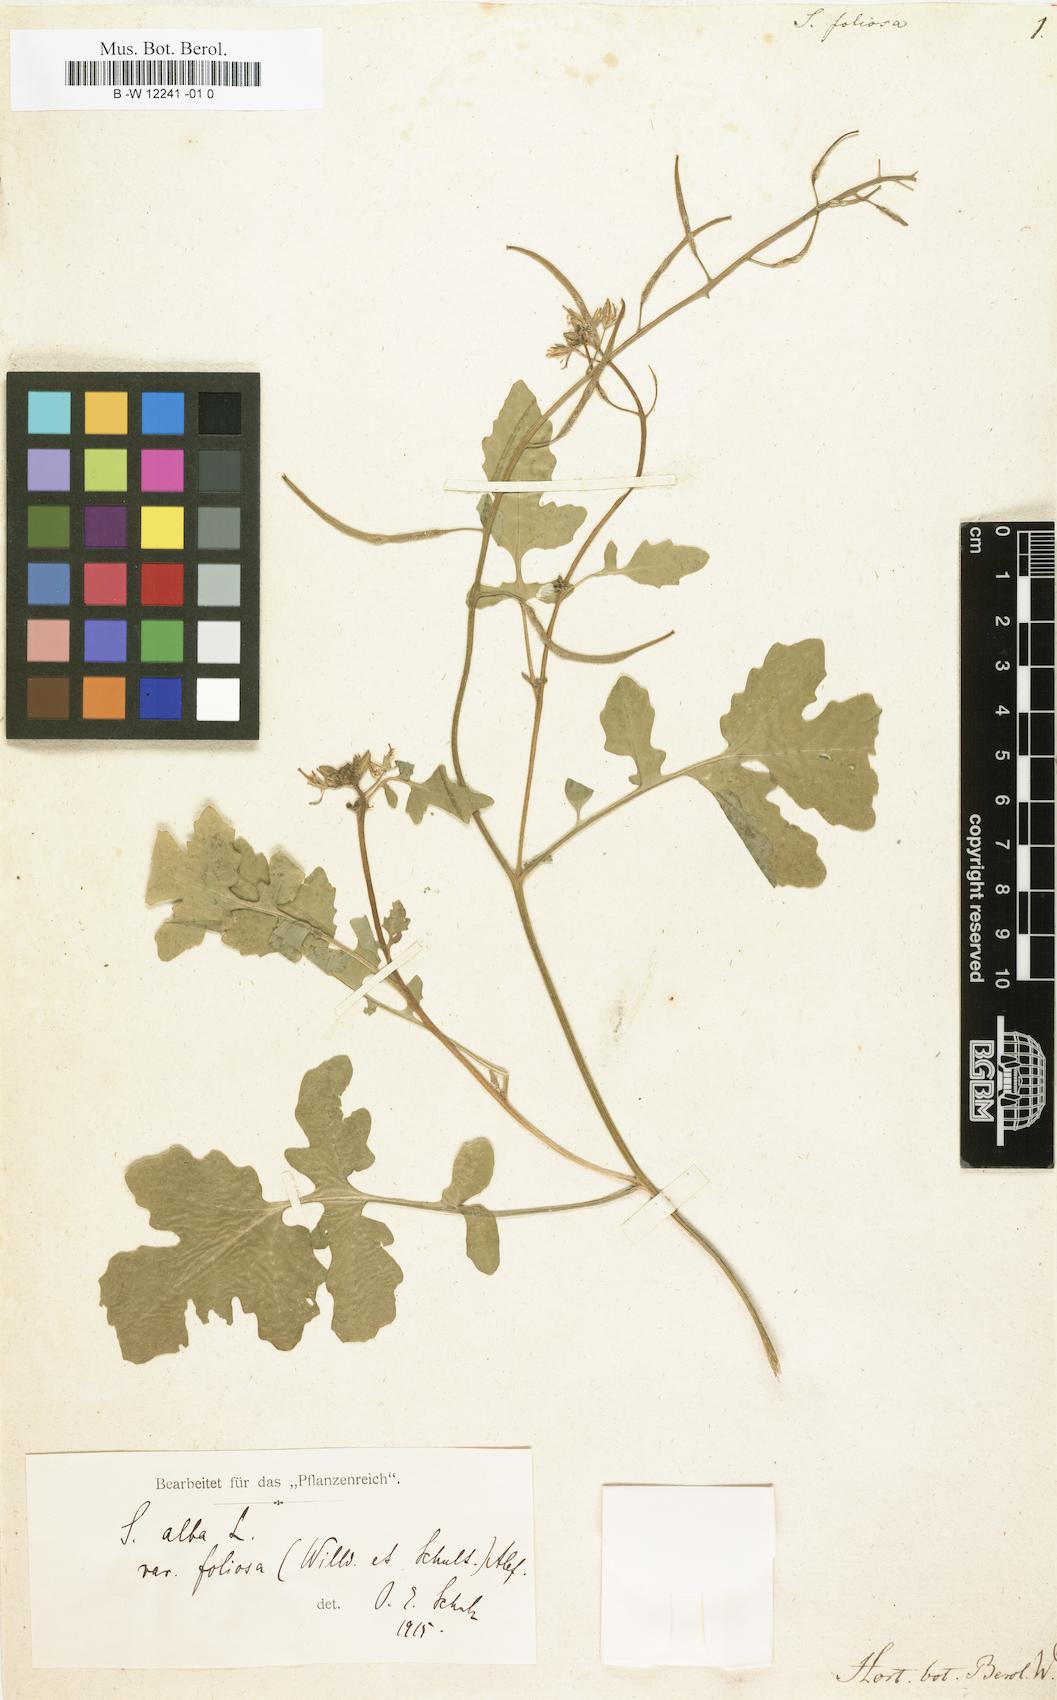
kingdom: Plantae
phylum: Tracheophyta
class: Magnoliopsida
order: Brassicales
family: Brassicaceae
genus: Sinapis
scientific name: Sinapis alba
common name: White mustard
